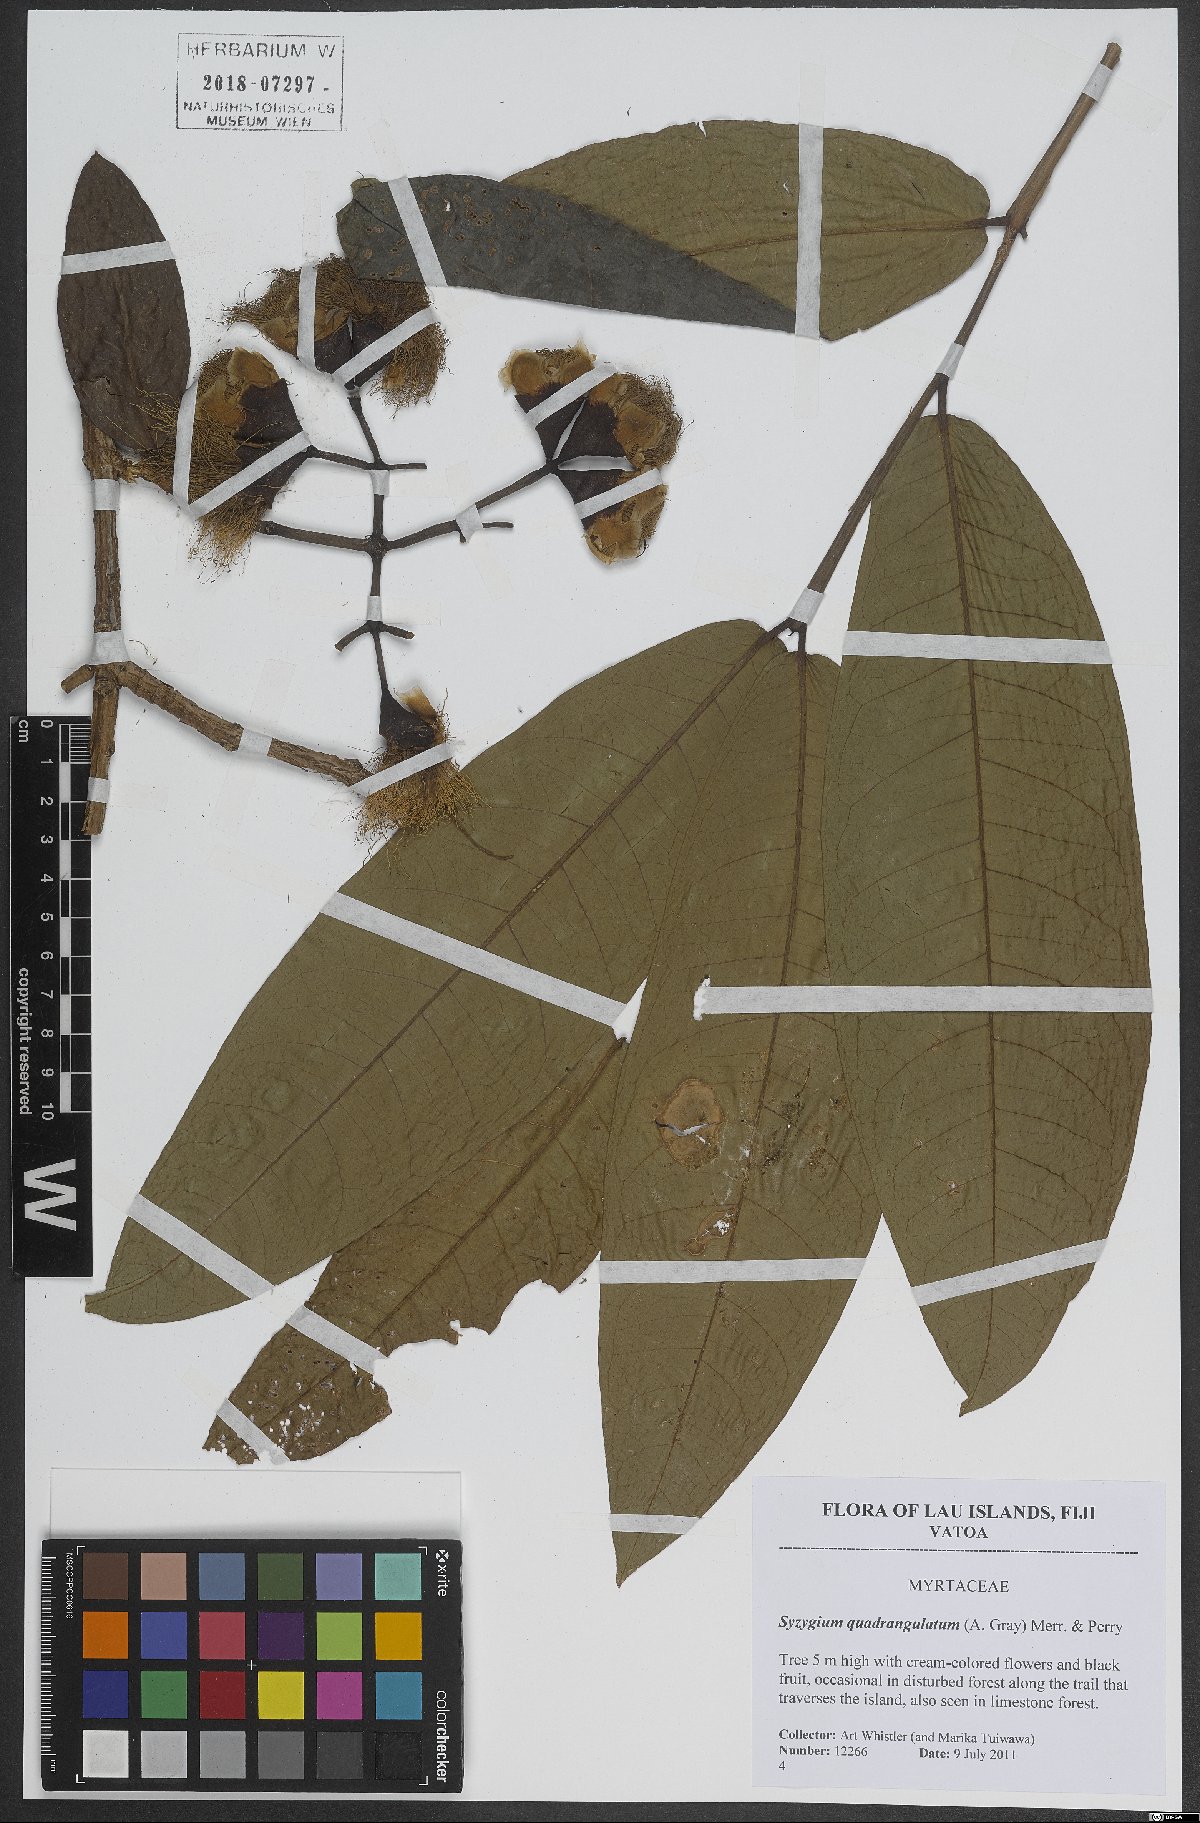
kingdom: Plantae
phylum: Tracheophyta
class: Magnoliopsida
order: Myrtales
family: Myrtaceae
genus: Syzygium
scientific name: Syzygium quadrangulatum
